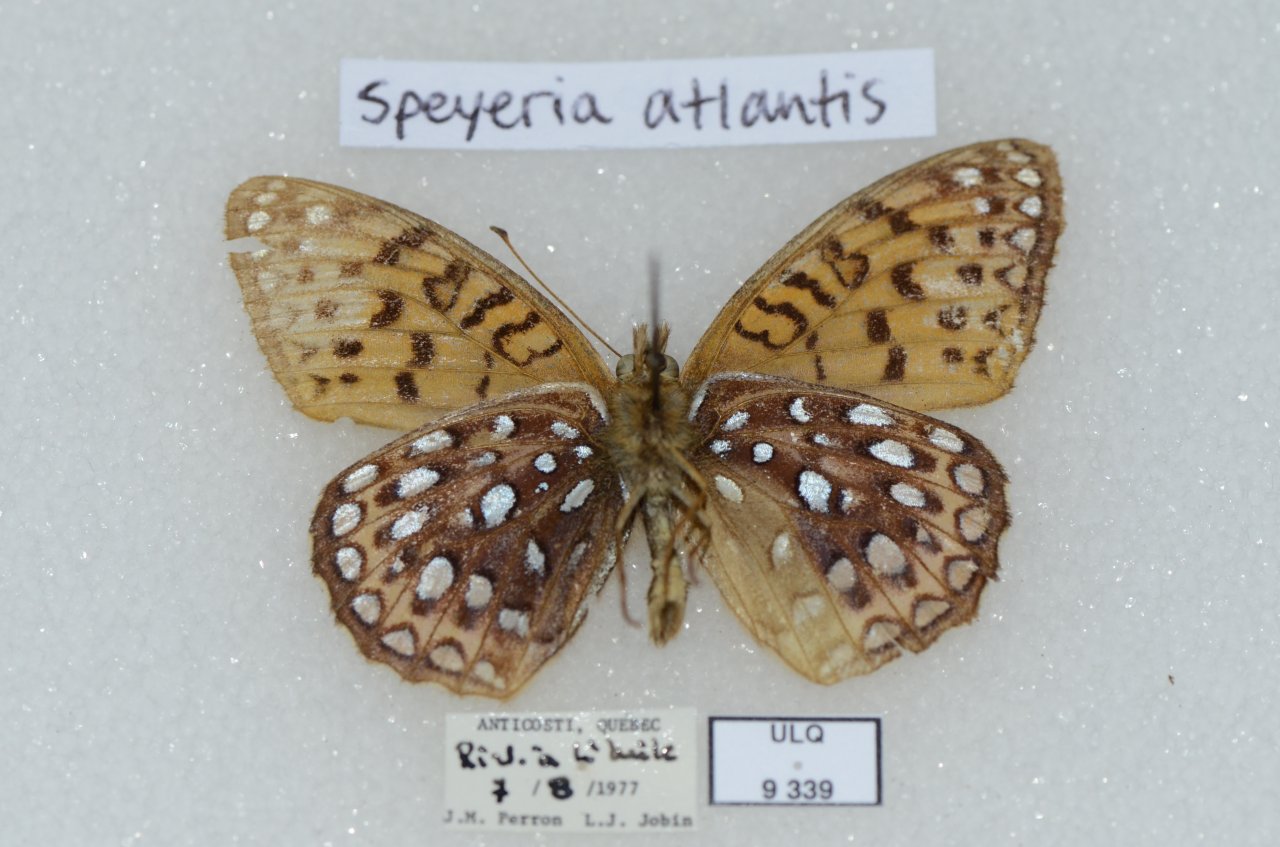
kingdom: Animalia
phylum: Arthropoda
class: Insecta
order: Lepidoptera
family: Nymphalidae
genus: Speyeria
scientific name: Speyeria atlantis
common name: Atlantis Fritillary
